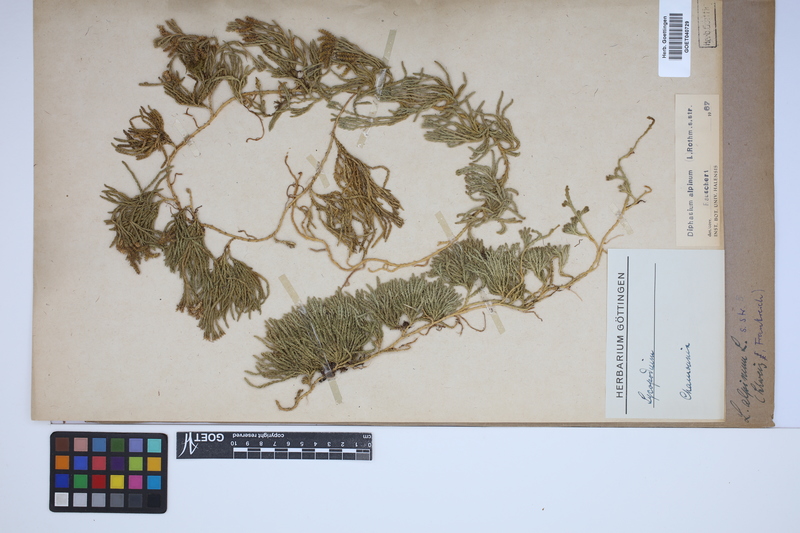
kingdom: Plantae
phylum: Tracheophyta
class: Lycopodiopsida
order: Lycopodiales
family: Lycopodiaceae
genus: Diphasiastrum
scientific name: Diphasiastrum alpinum
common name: Alpine clubmoss
